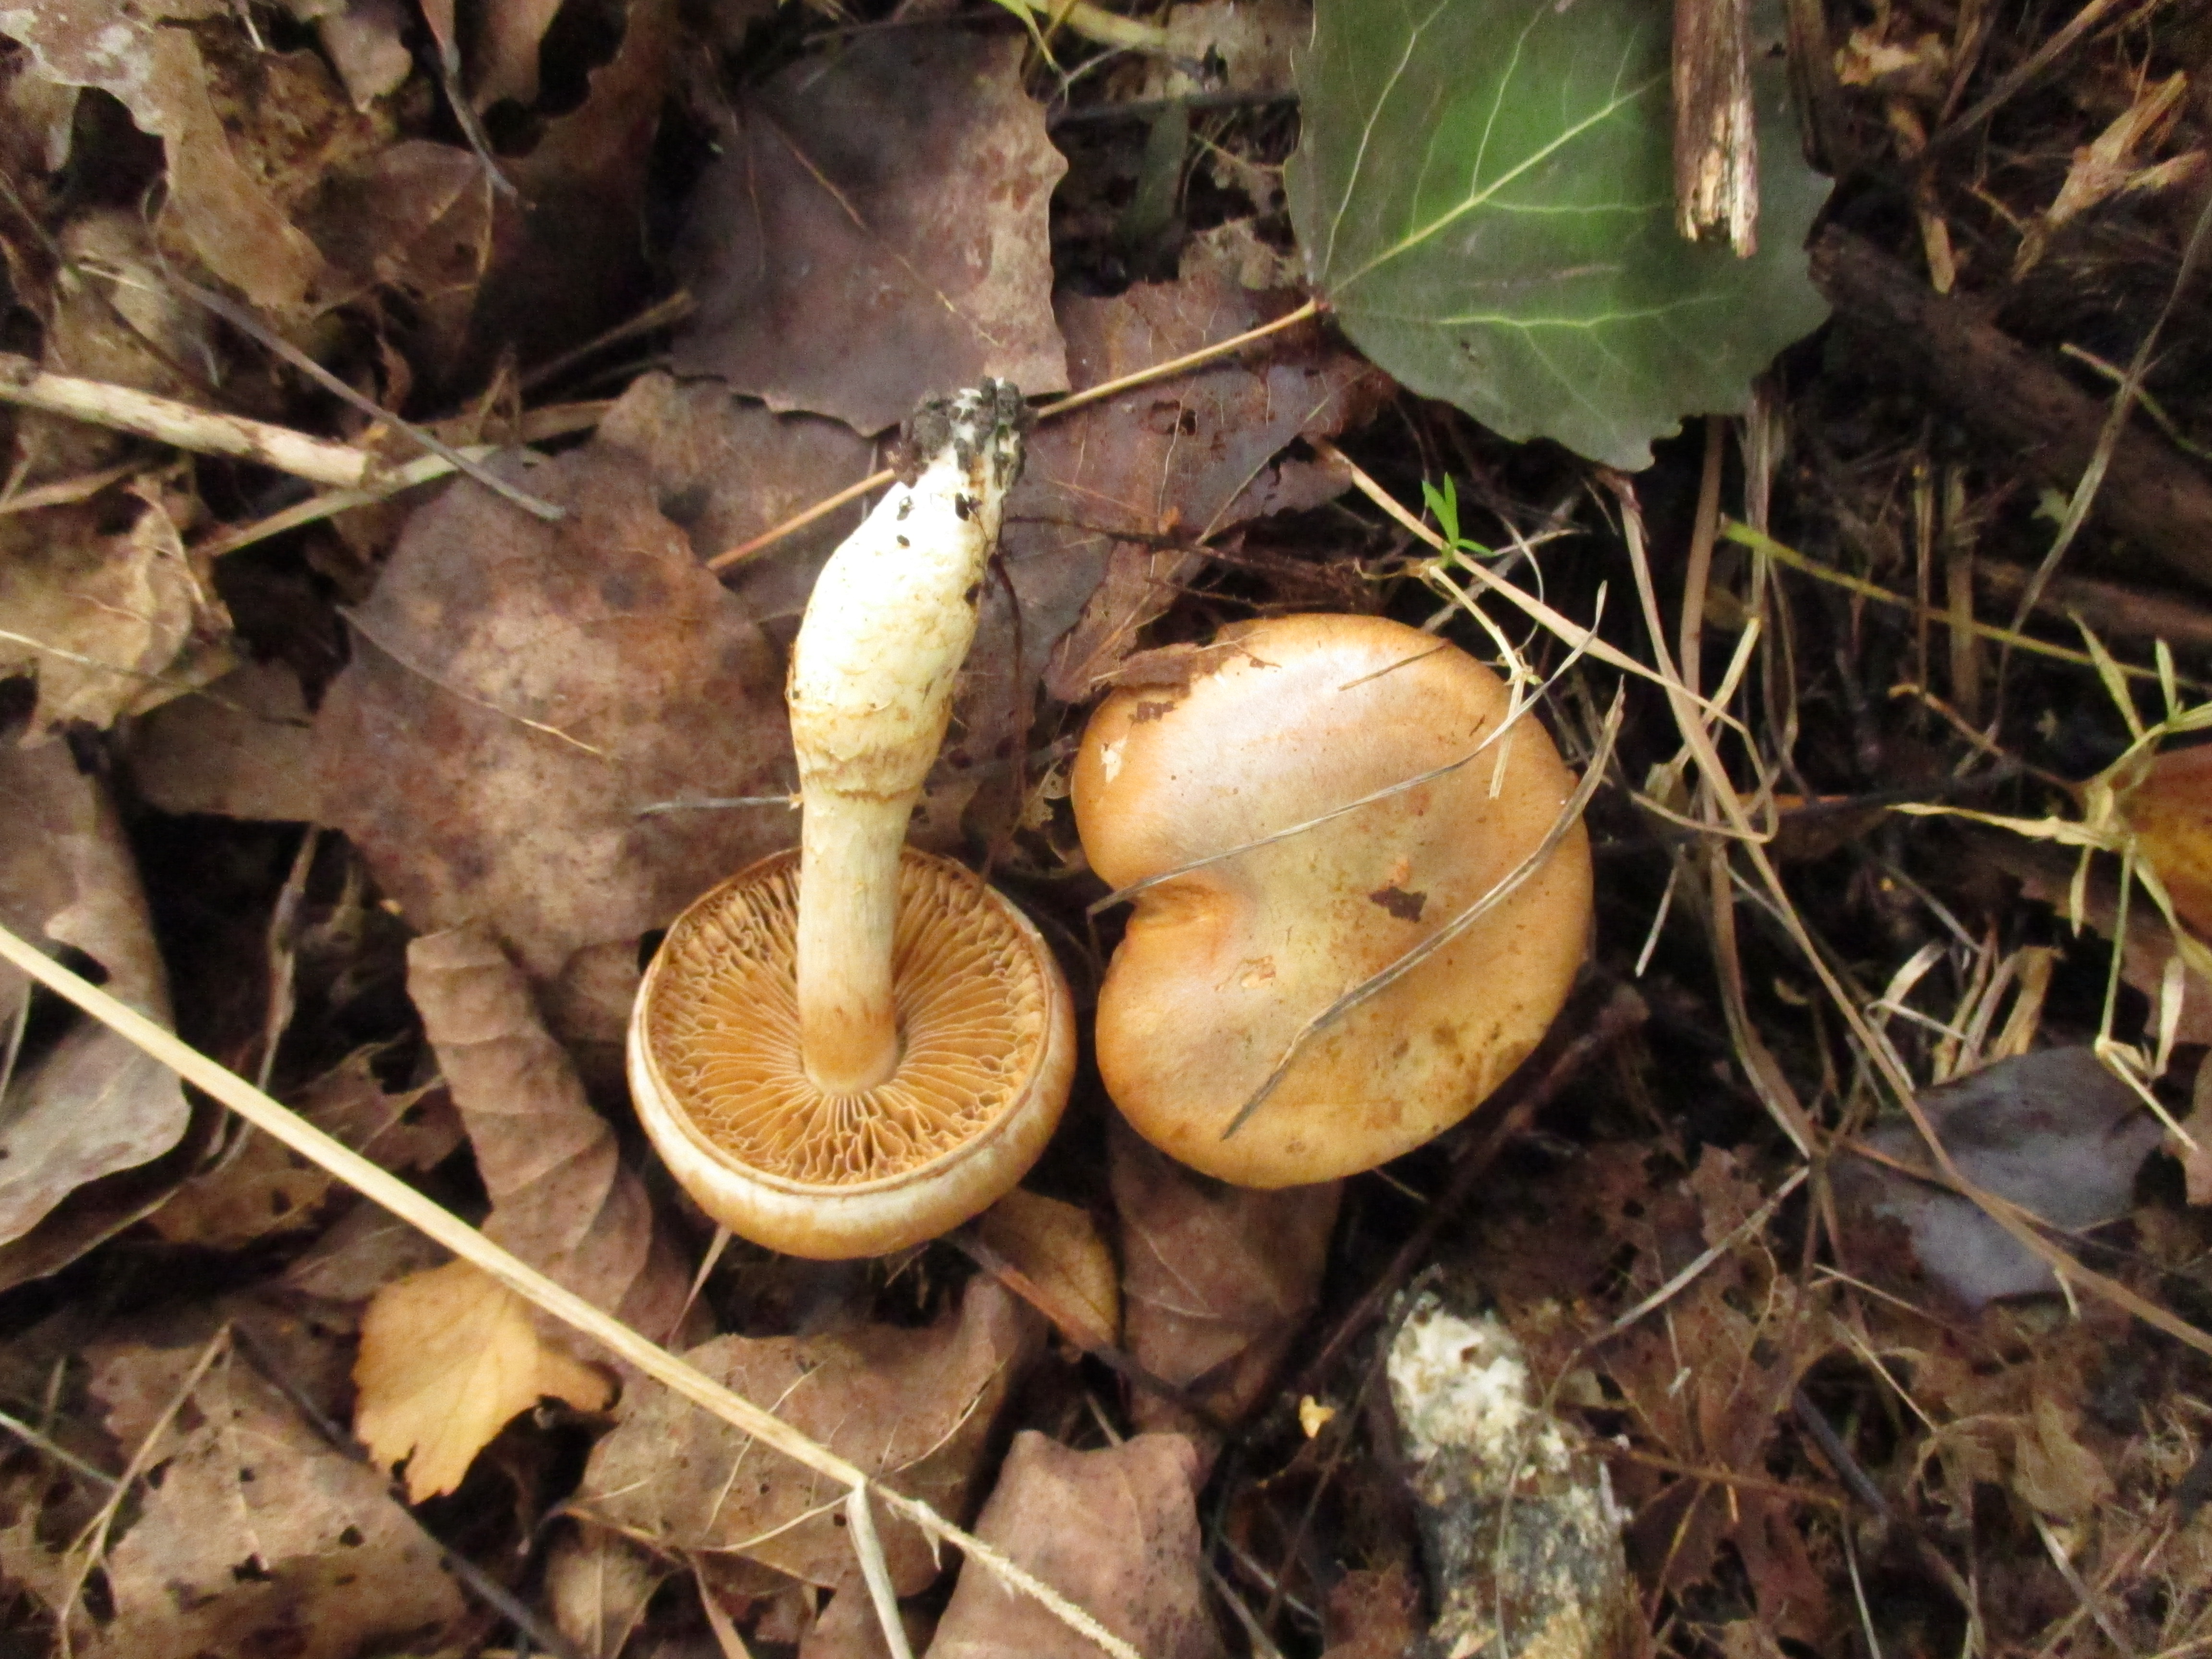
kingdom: Fungi
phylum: Basidiomycota
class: Agaricomycetes
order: Agaricales
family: Cortinariaceae
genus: Phlegmacium
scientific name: Phlegmacium argutum
